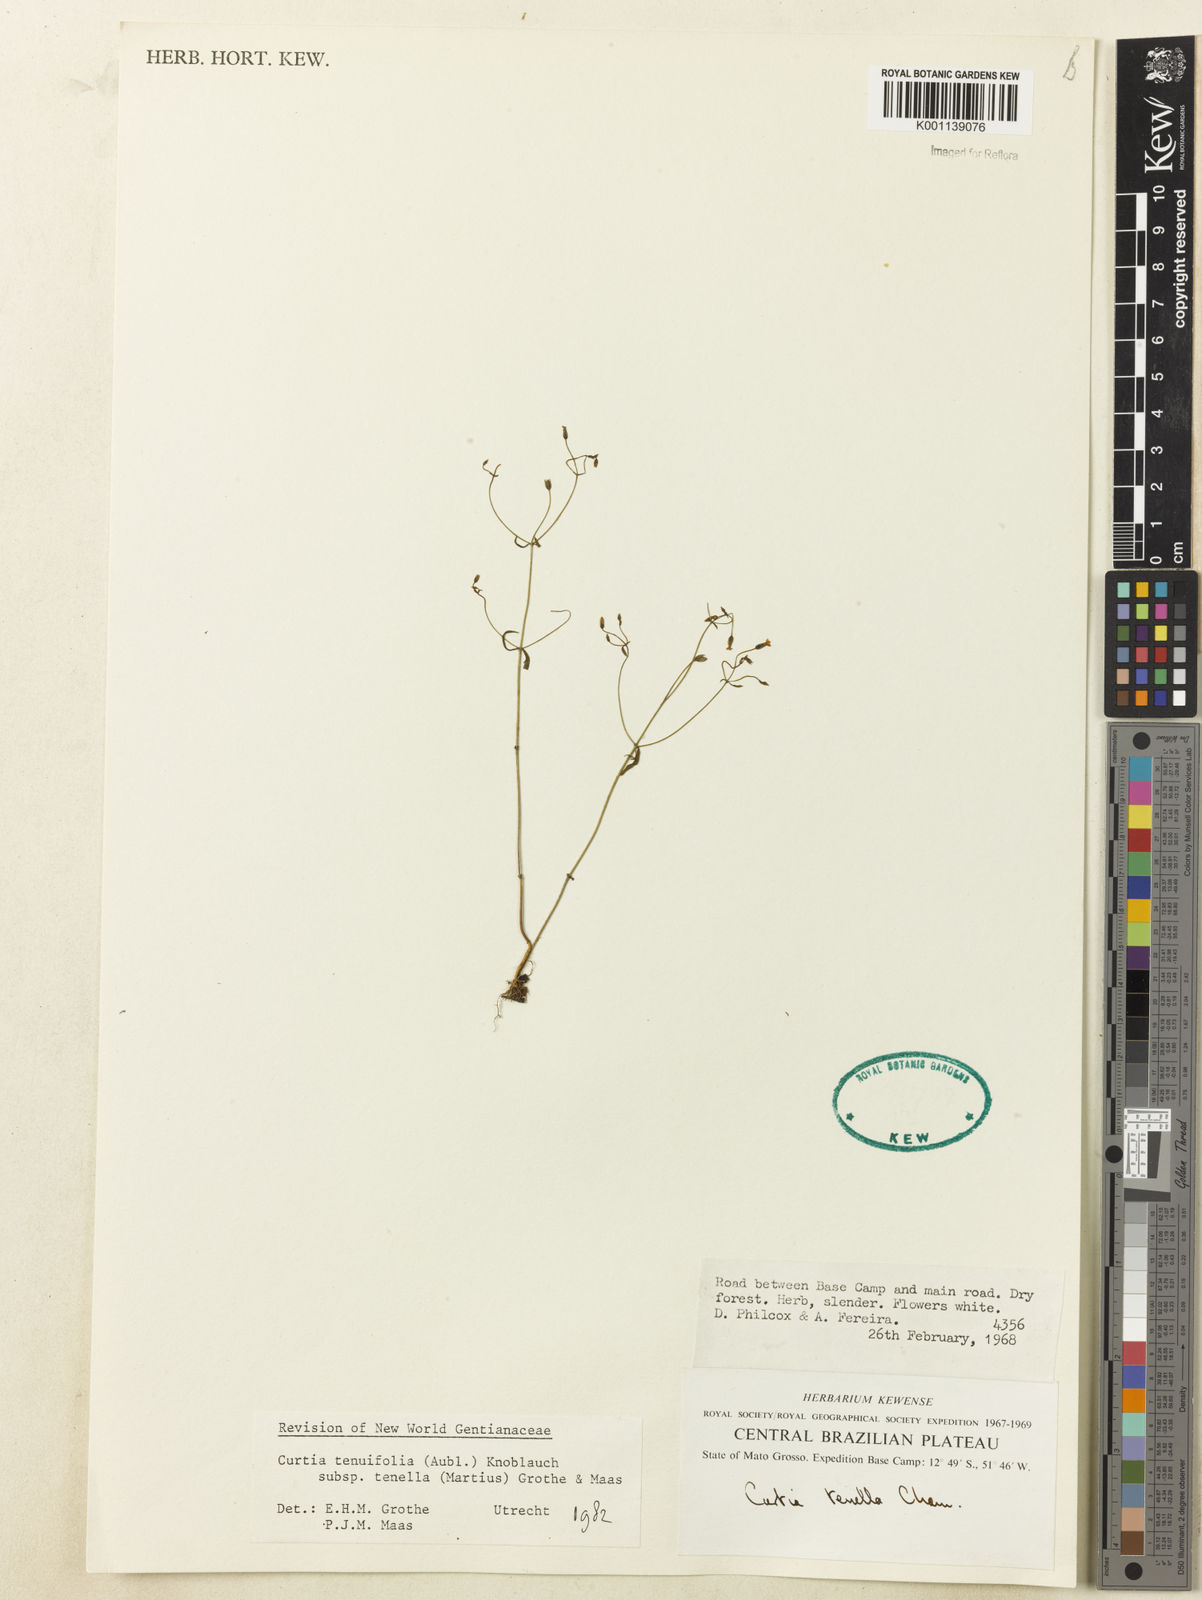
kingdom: Plantae
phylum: Tracheophyta
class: Magnoliopsida
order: Gentianales
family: Gentianaceae
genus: Curtia
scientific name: Curtia tenella
